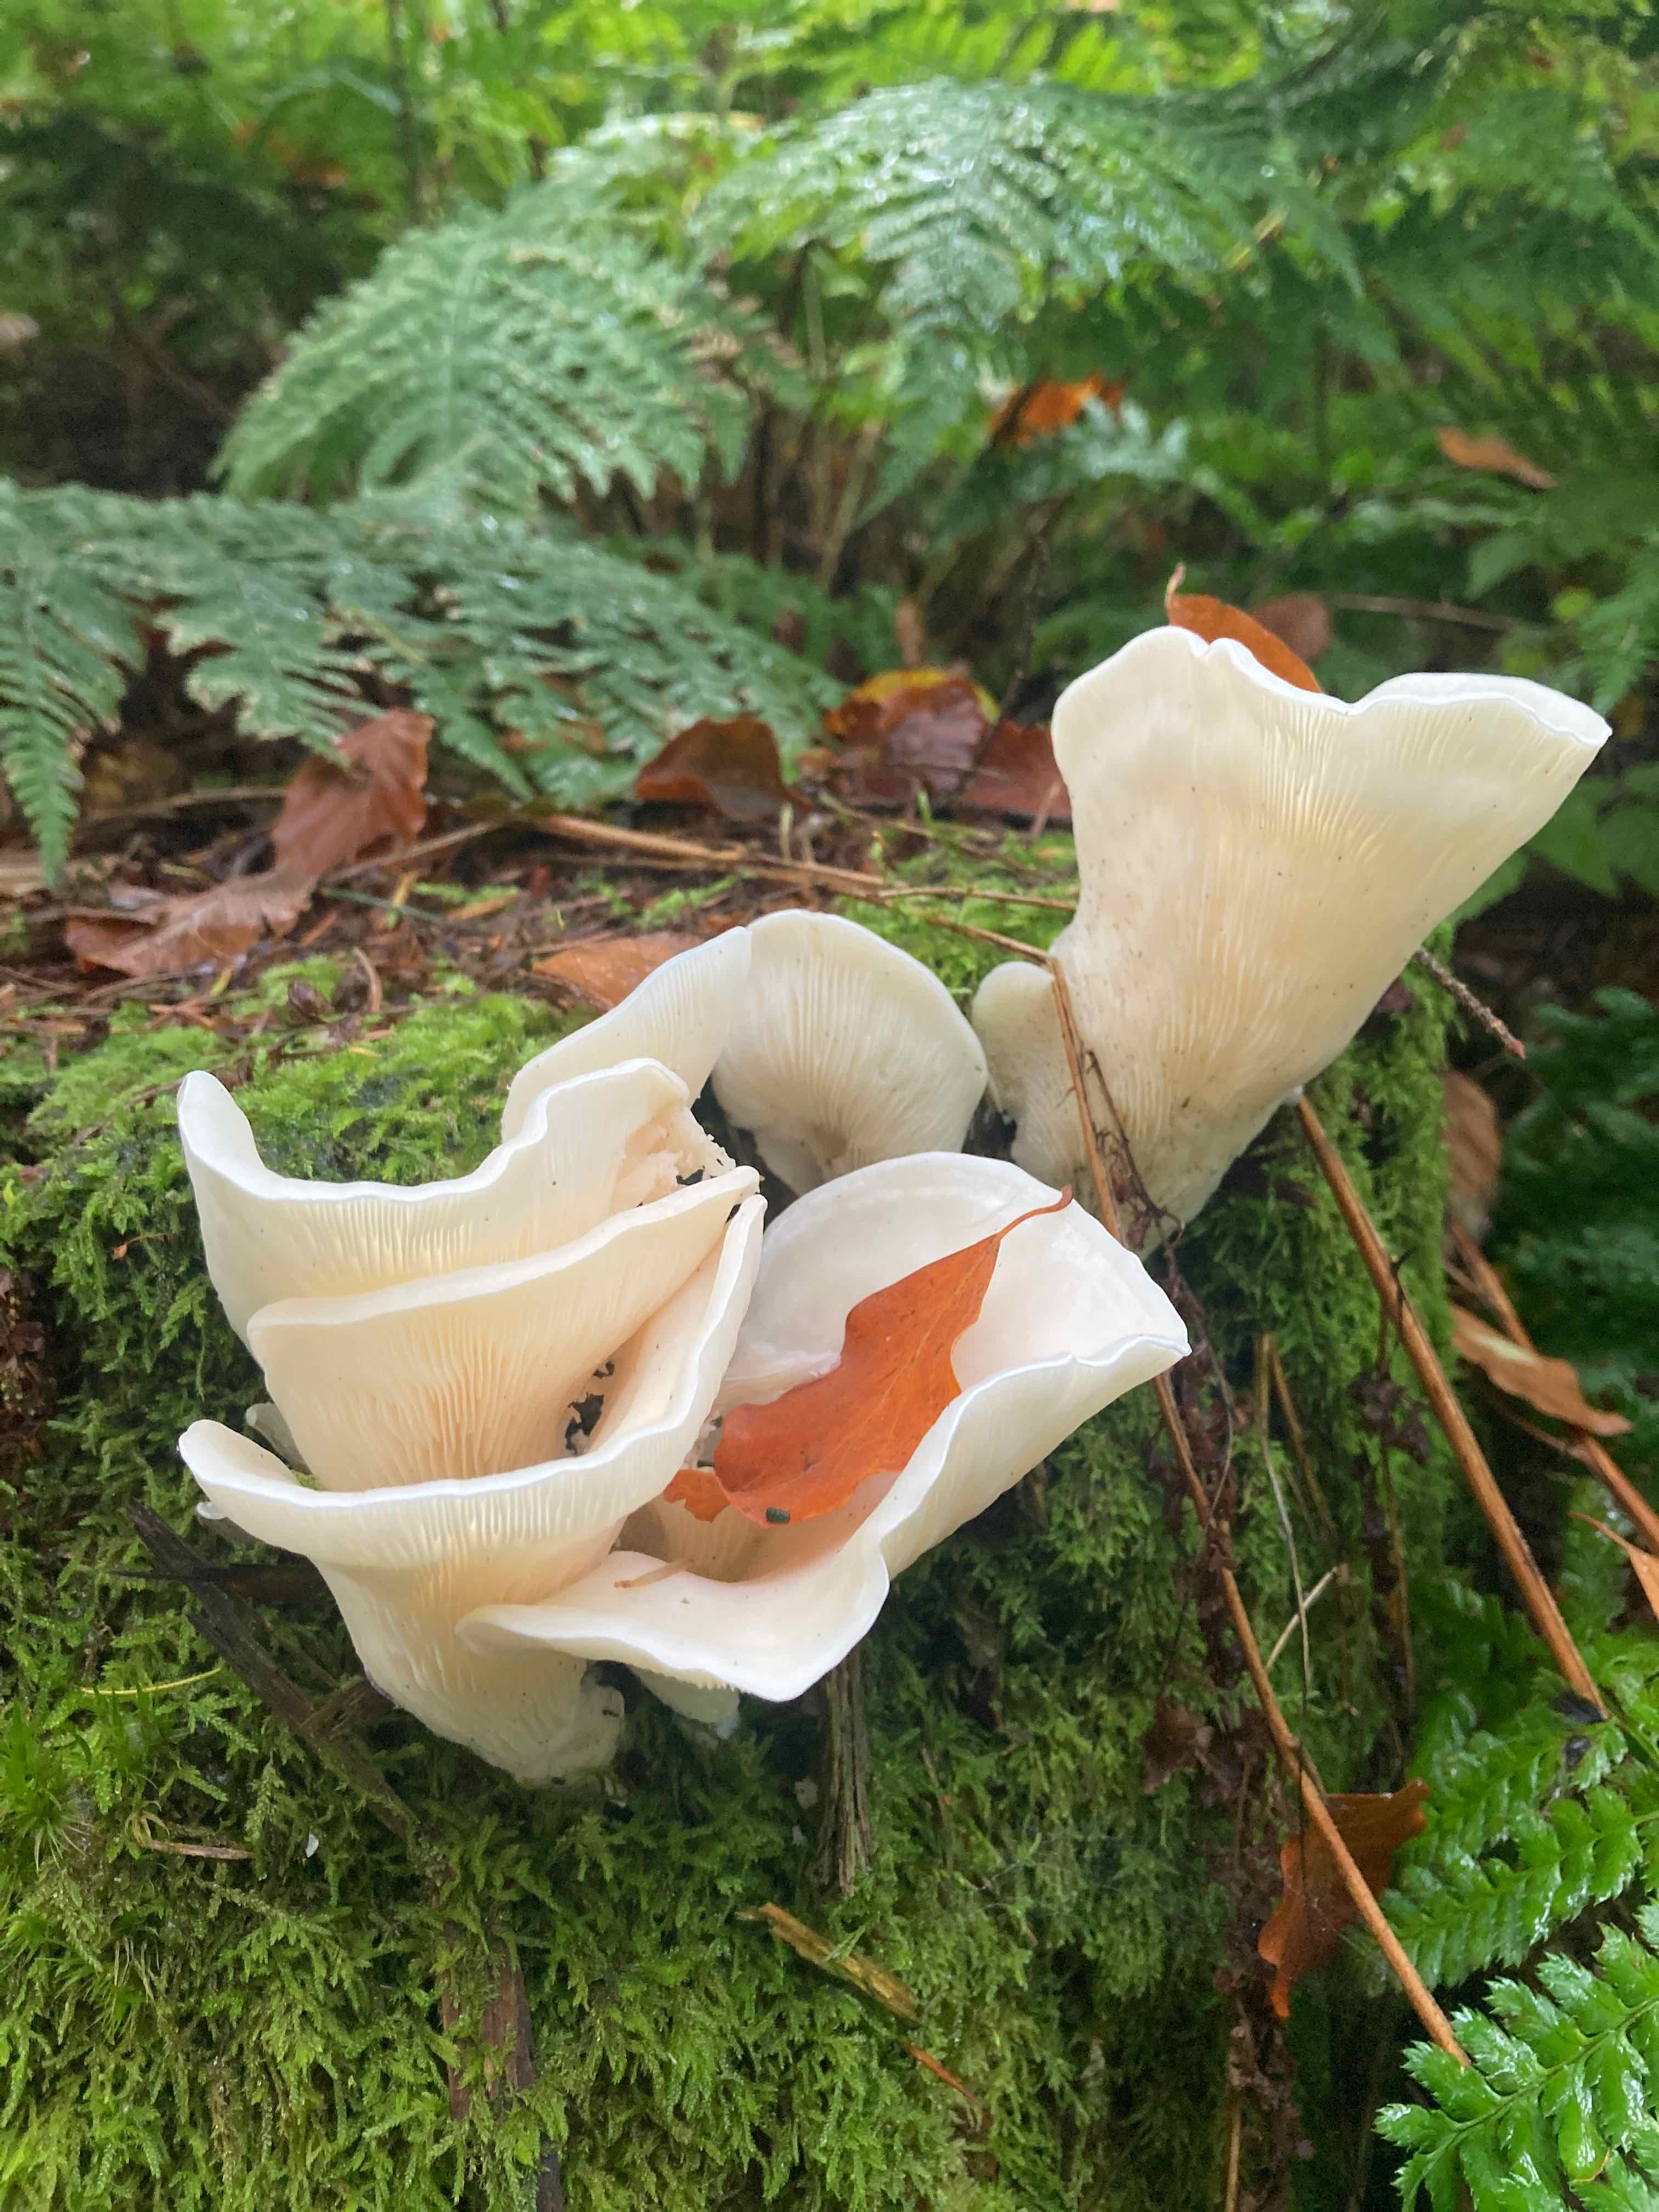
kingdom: Fungi
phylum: Basidiomycota
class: Agaricomycetes
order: Agaricales
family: Marasmiaceae
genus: Pleurocybella
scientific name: Pleurocybella porrigens
